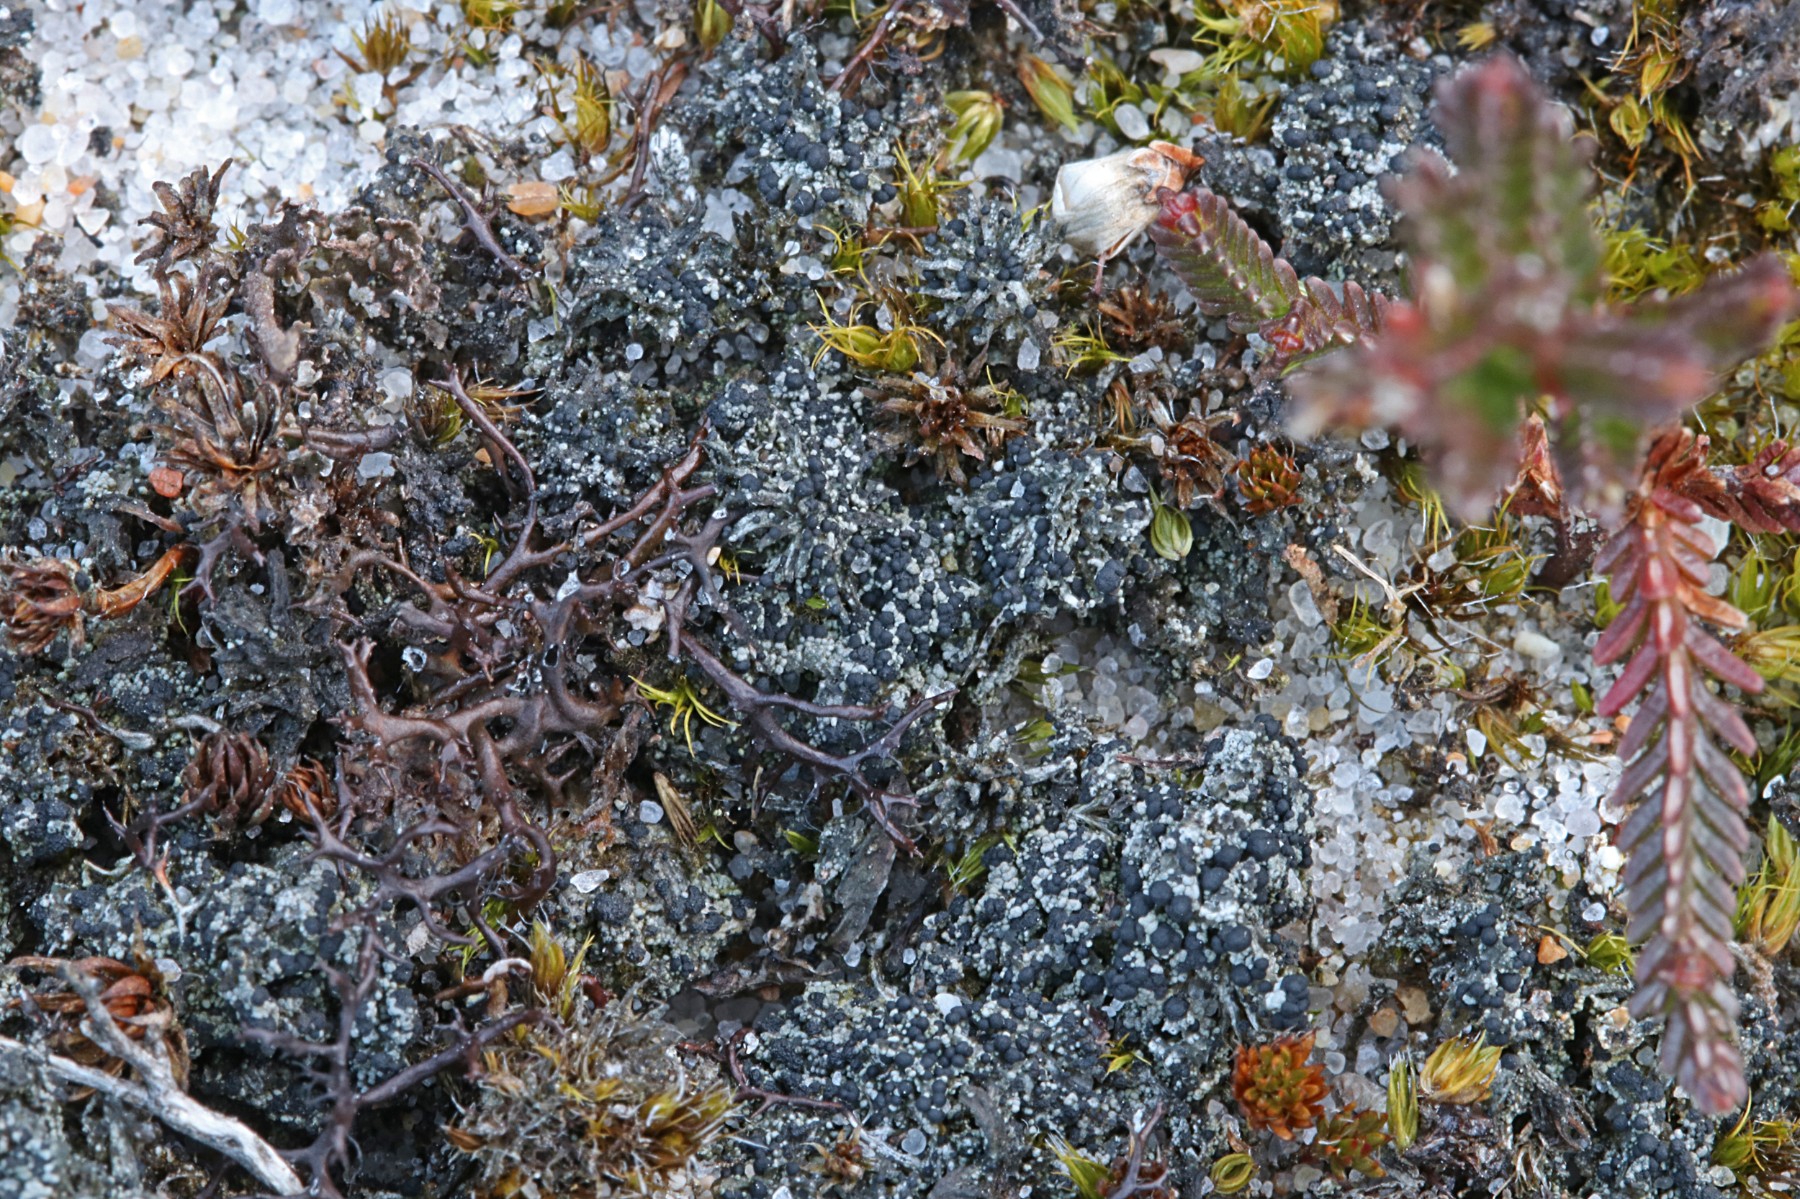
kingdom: Fungi
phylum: Ascomycota
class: Lecanoromycetes
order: Lecanorales
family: Byssolomataceae
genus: Micarea
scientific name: Micarea lignaria
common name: tørve-knaplav
